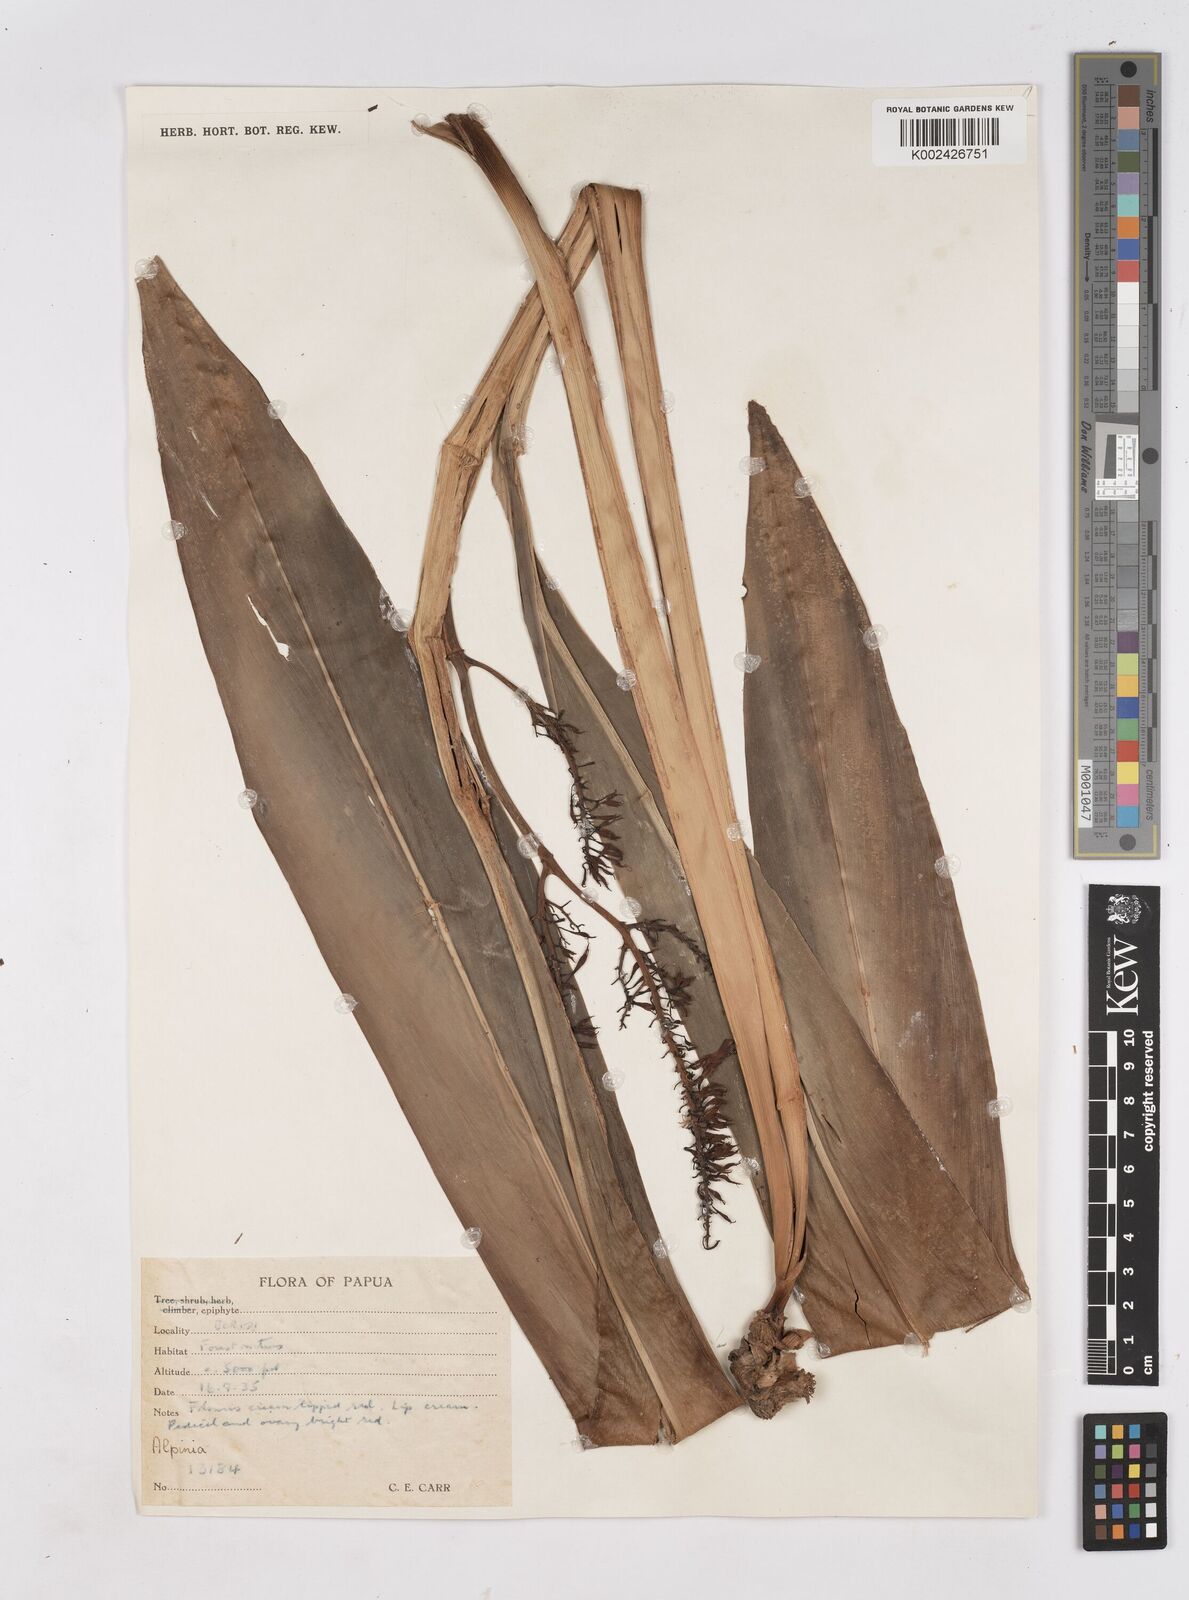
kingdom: Plantae
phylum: Tracheophyta
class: Liliopsida
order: Zingiberales
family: Zingiberaceae
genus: Riedelia
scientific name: Riedelia
